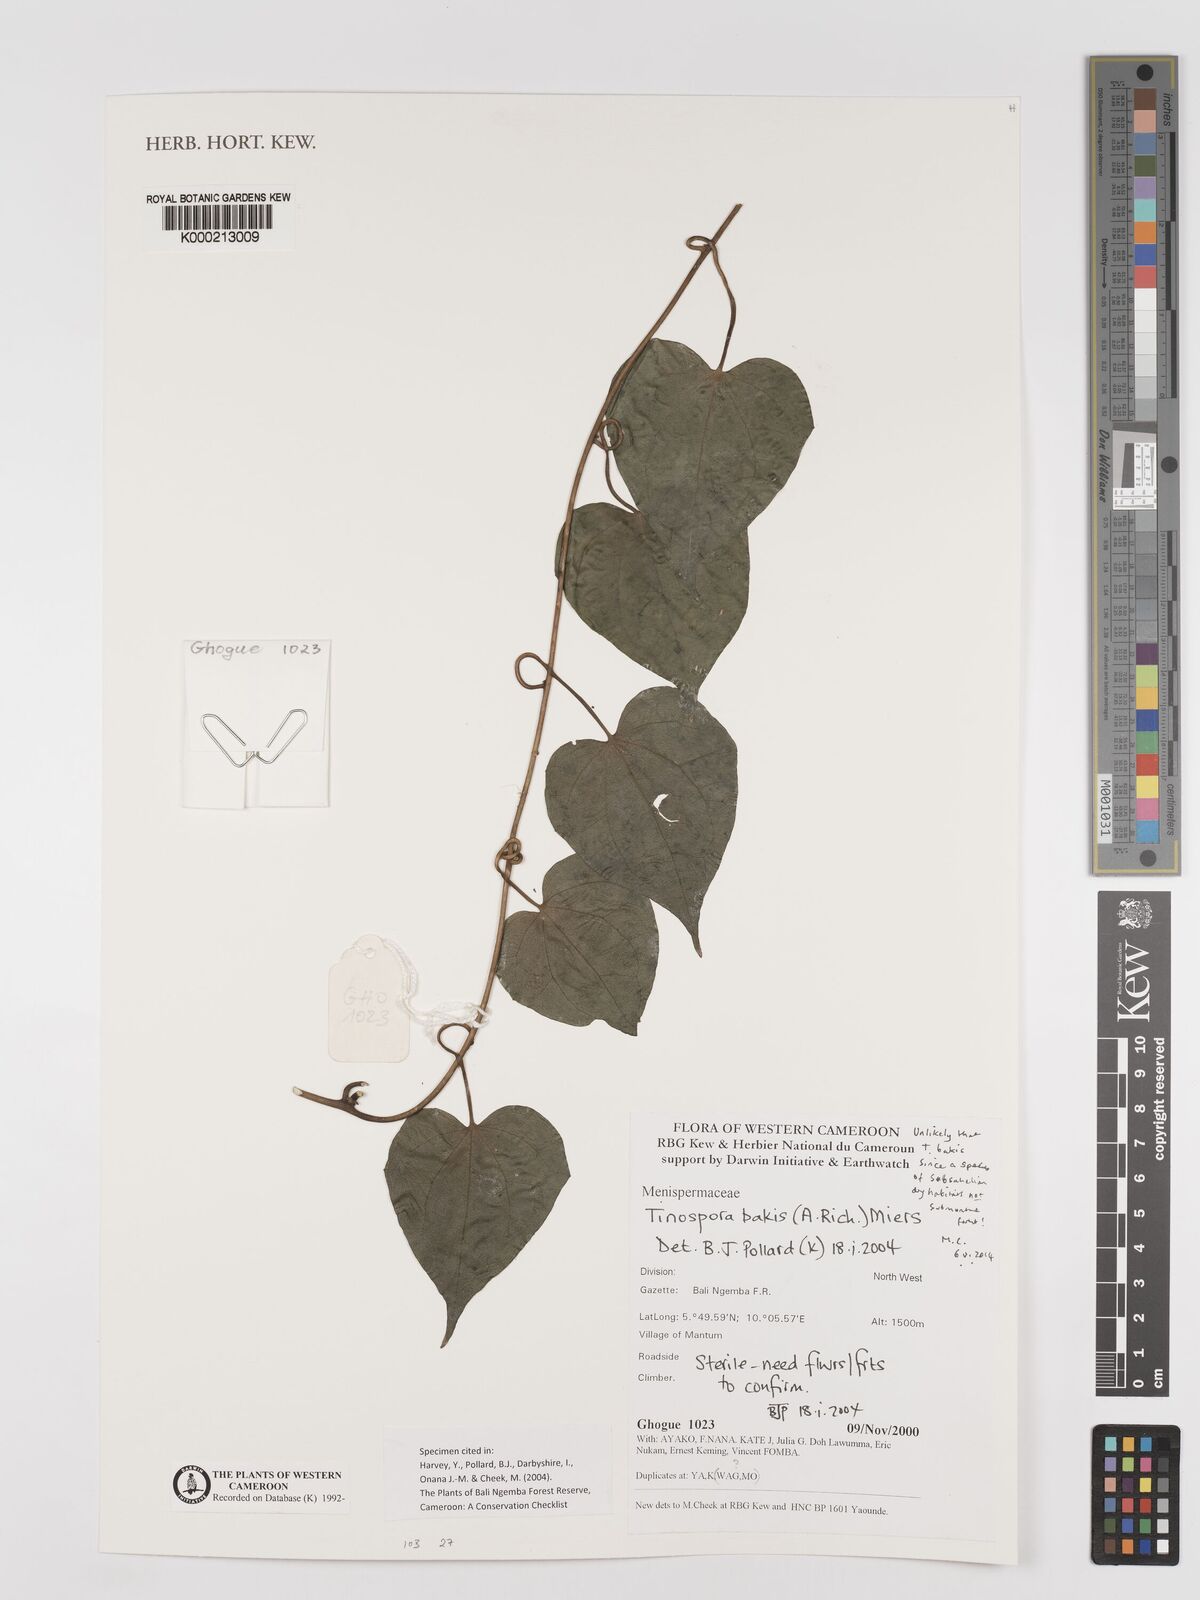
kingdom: Plantae
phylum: Tracheophyta
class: Magnoliopsida
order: Ranunculales
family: Menispermaceae
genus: Tinospora
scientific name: Tinospora bakis
